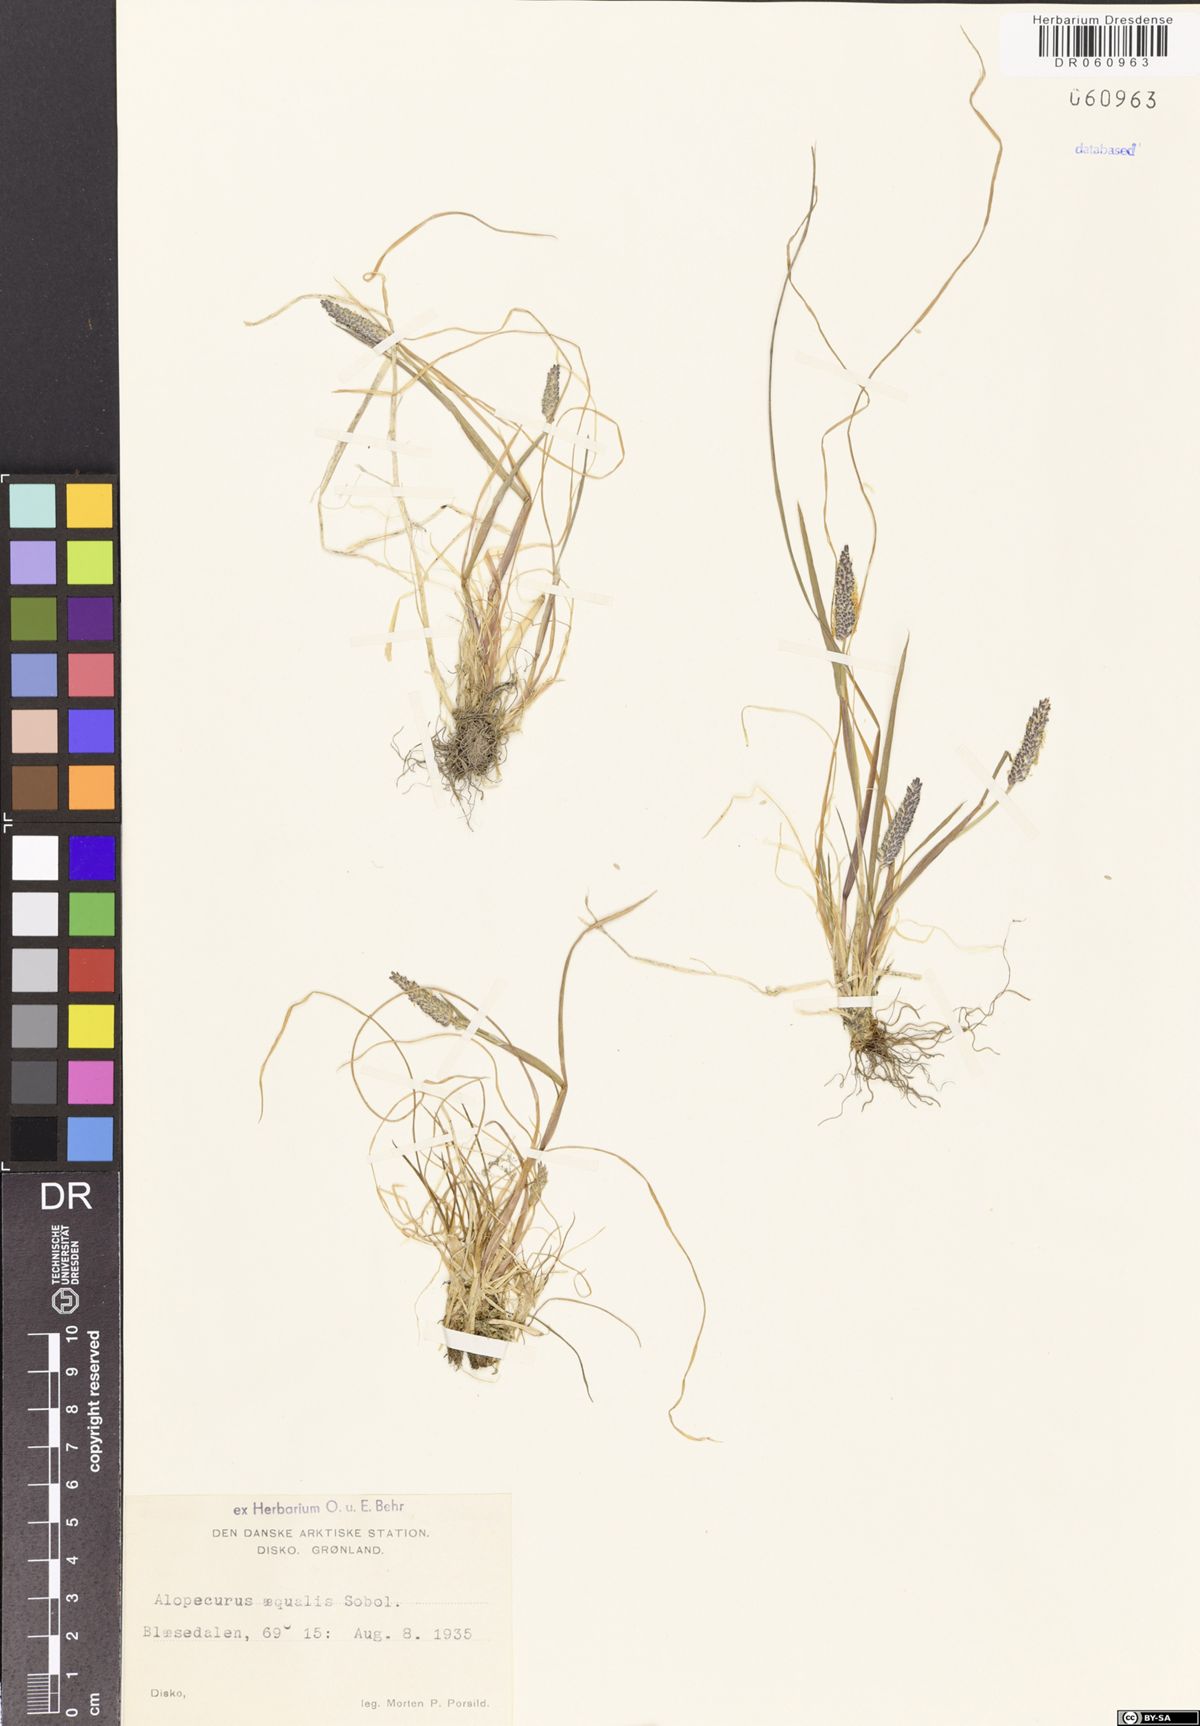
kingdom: Plantae
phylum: Tracheophyta
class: Liliopsida
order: Poales
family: Poaceae
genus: Alopecurus
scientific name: Alopecurus aequalis
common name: Orange foxtail
